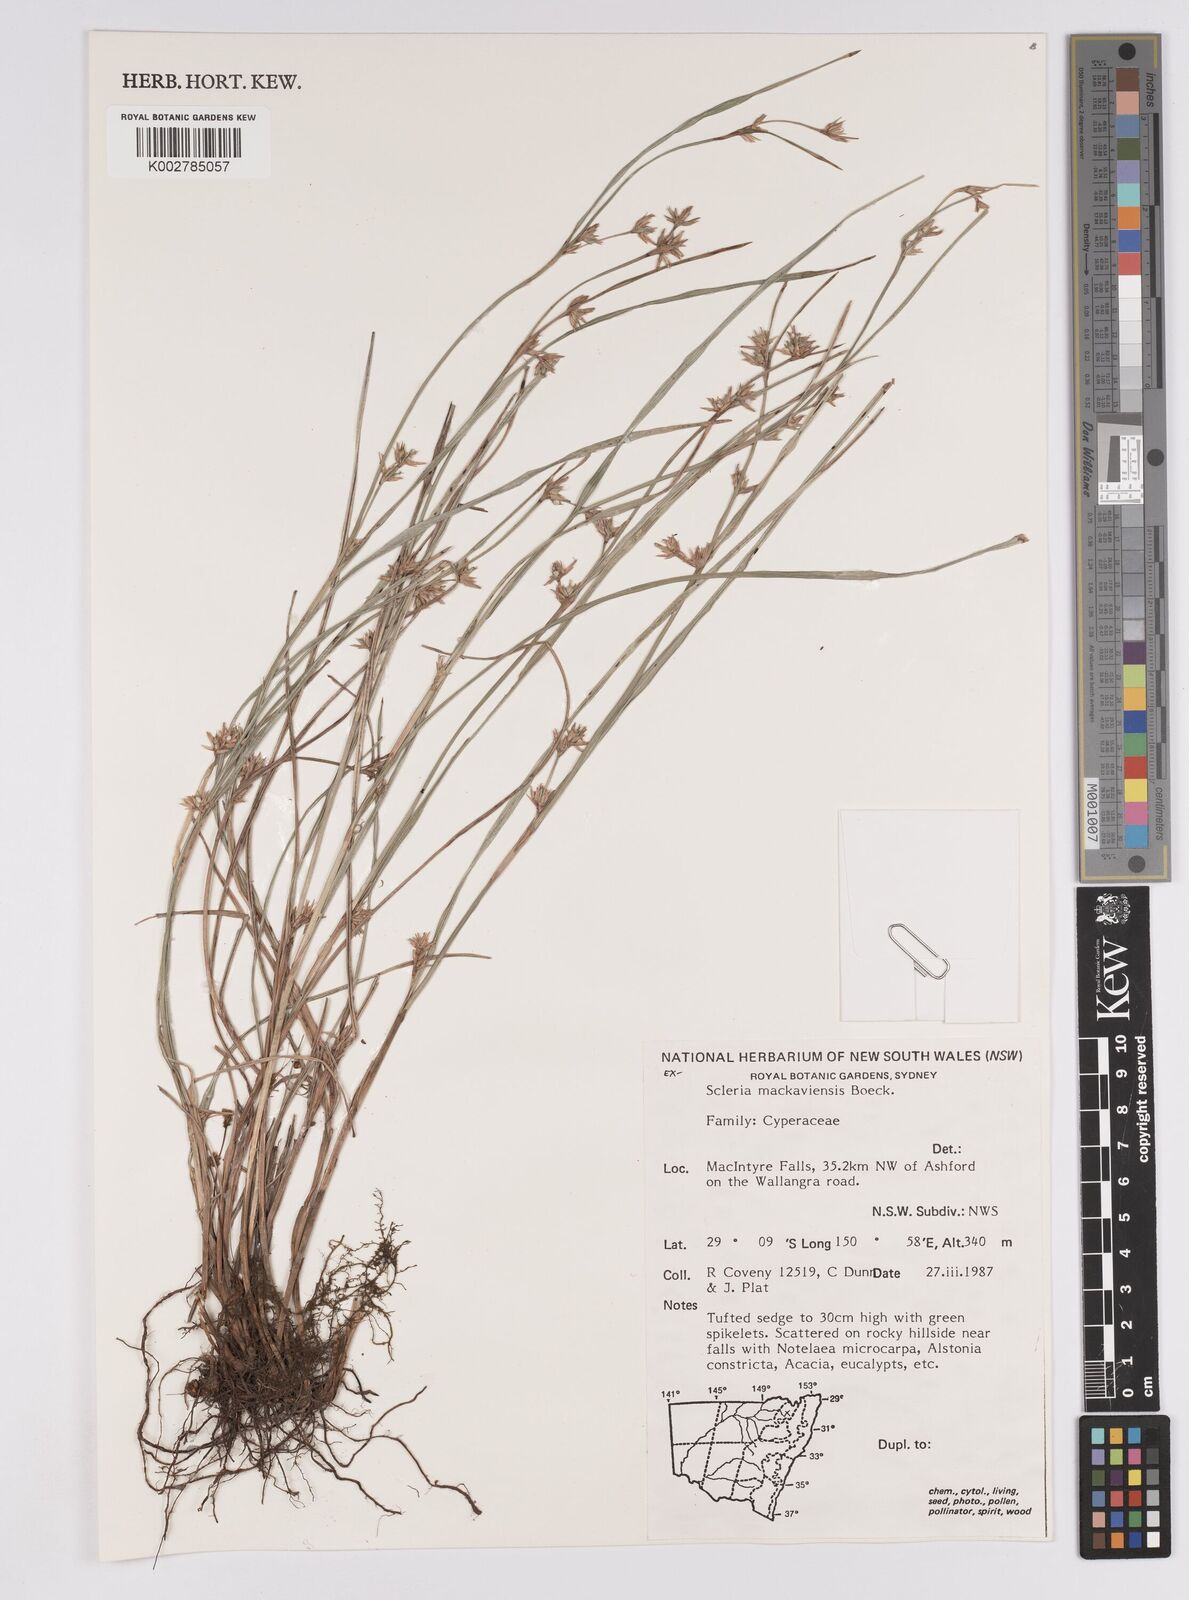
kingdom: Plantae
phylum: Tracheophyta
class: Liliopsida
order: Poales
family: Cyperaceae
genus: Scleria
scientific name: Scleria mackaviensis
